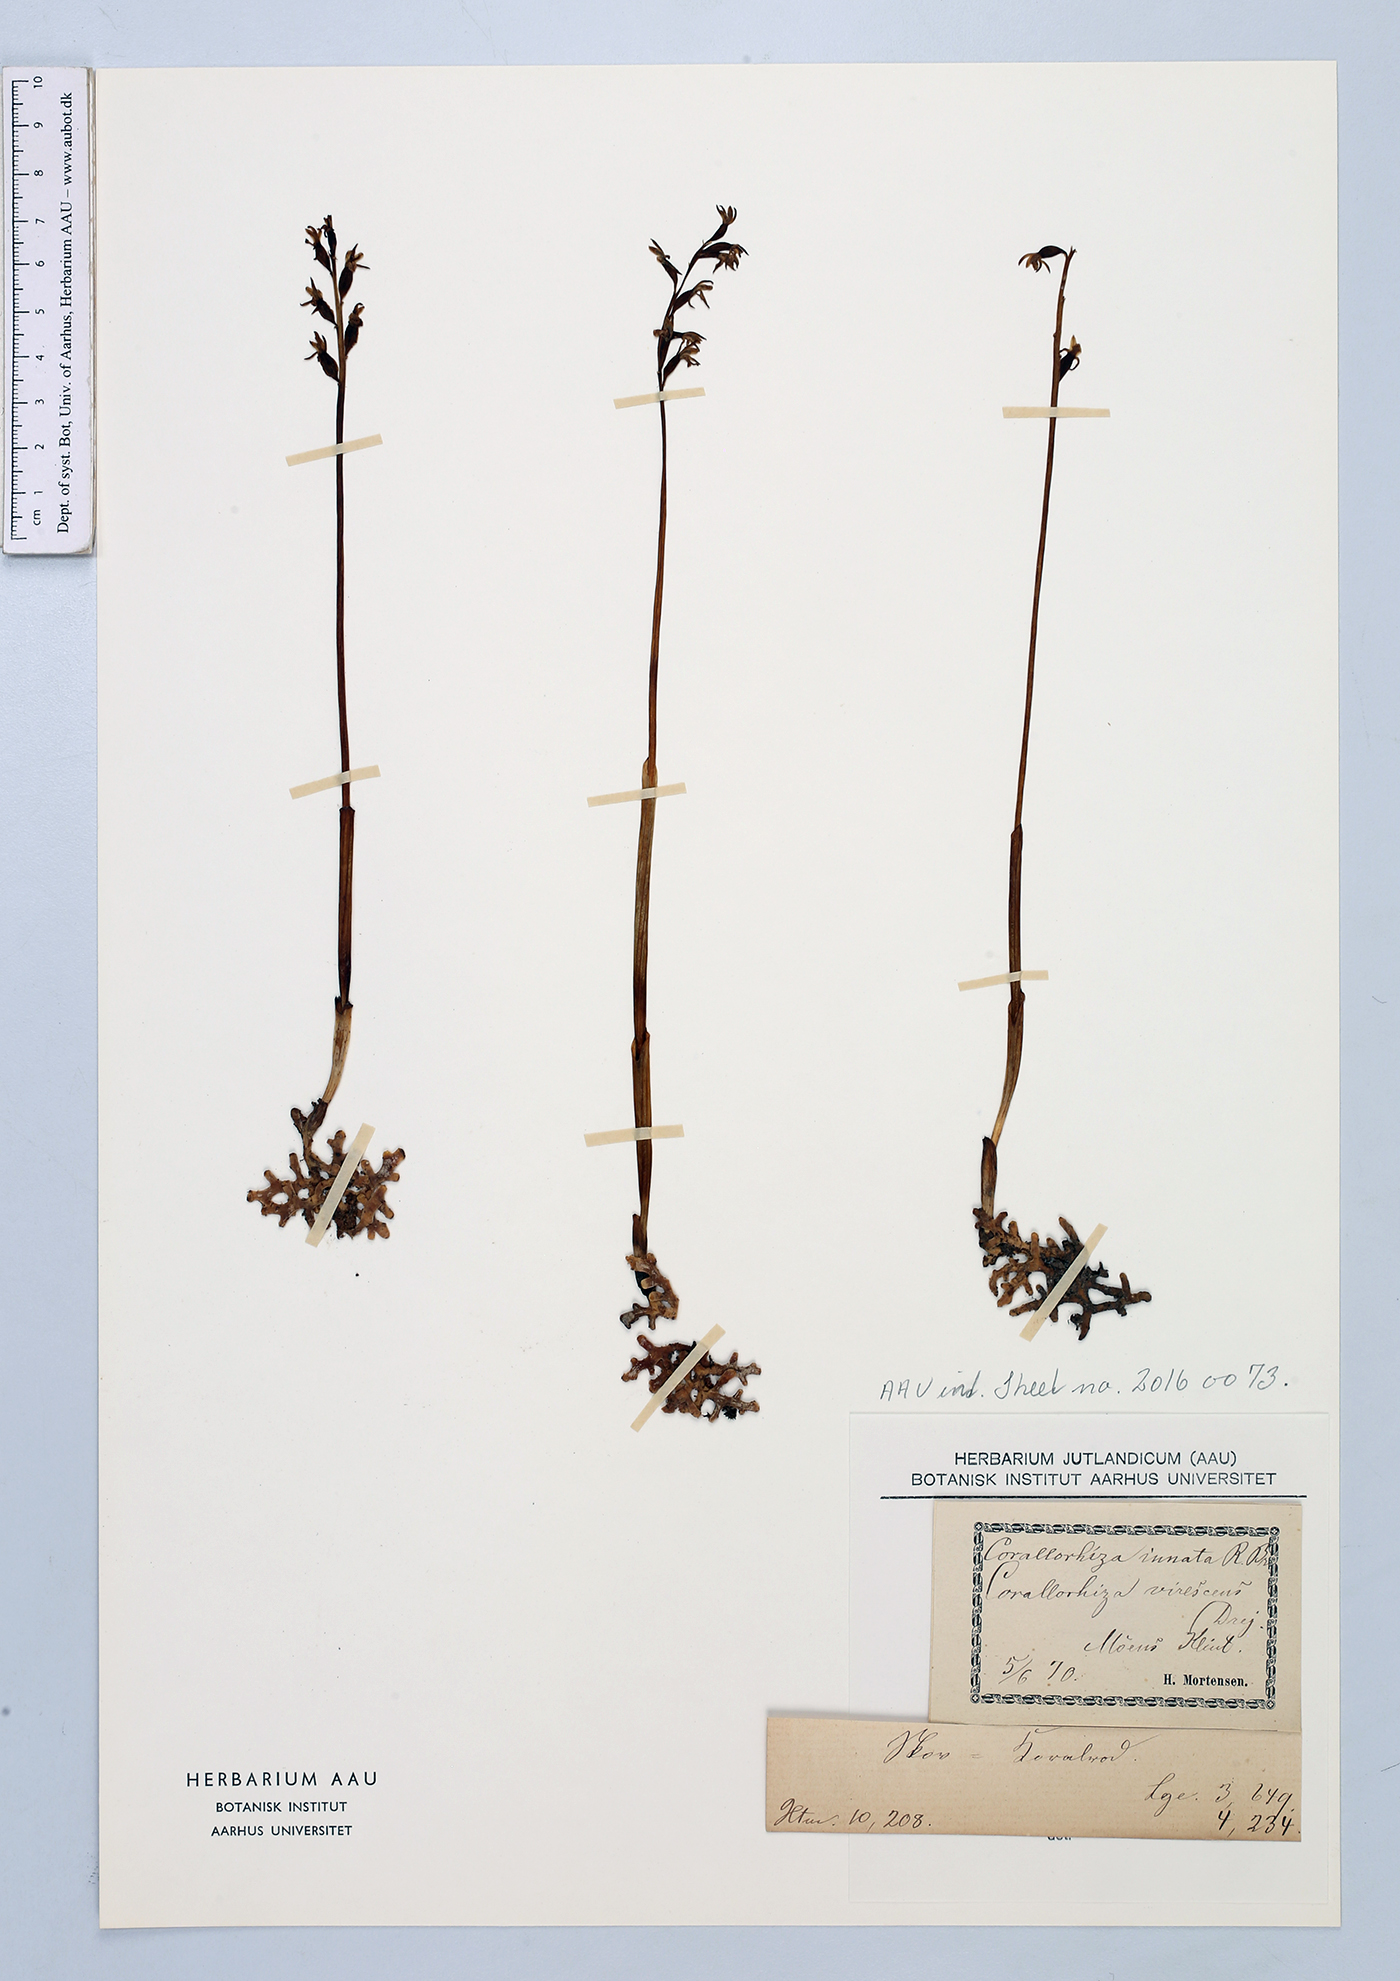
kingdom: Plantae
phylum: Tracheophyta
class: Liliopsida
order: Asparagales
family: Orchidaceae
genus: Corallorhiza
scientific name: Corallorhiza trifida
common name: Yellow coralroot
